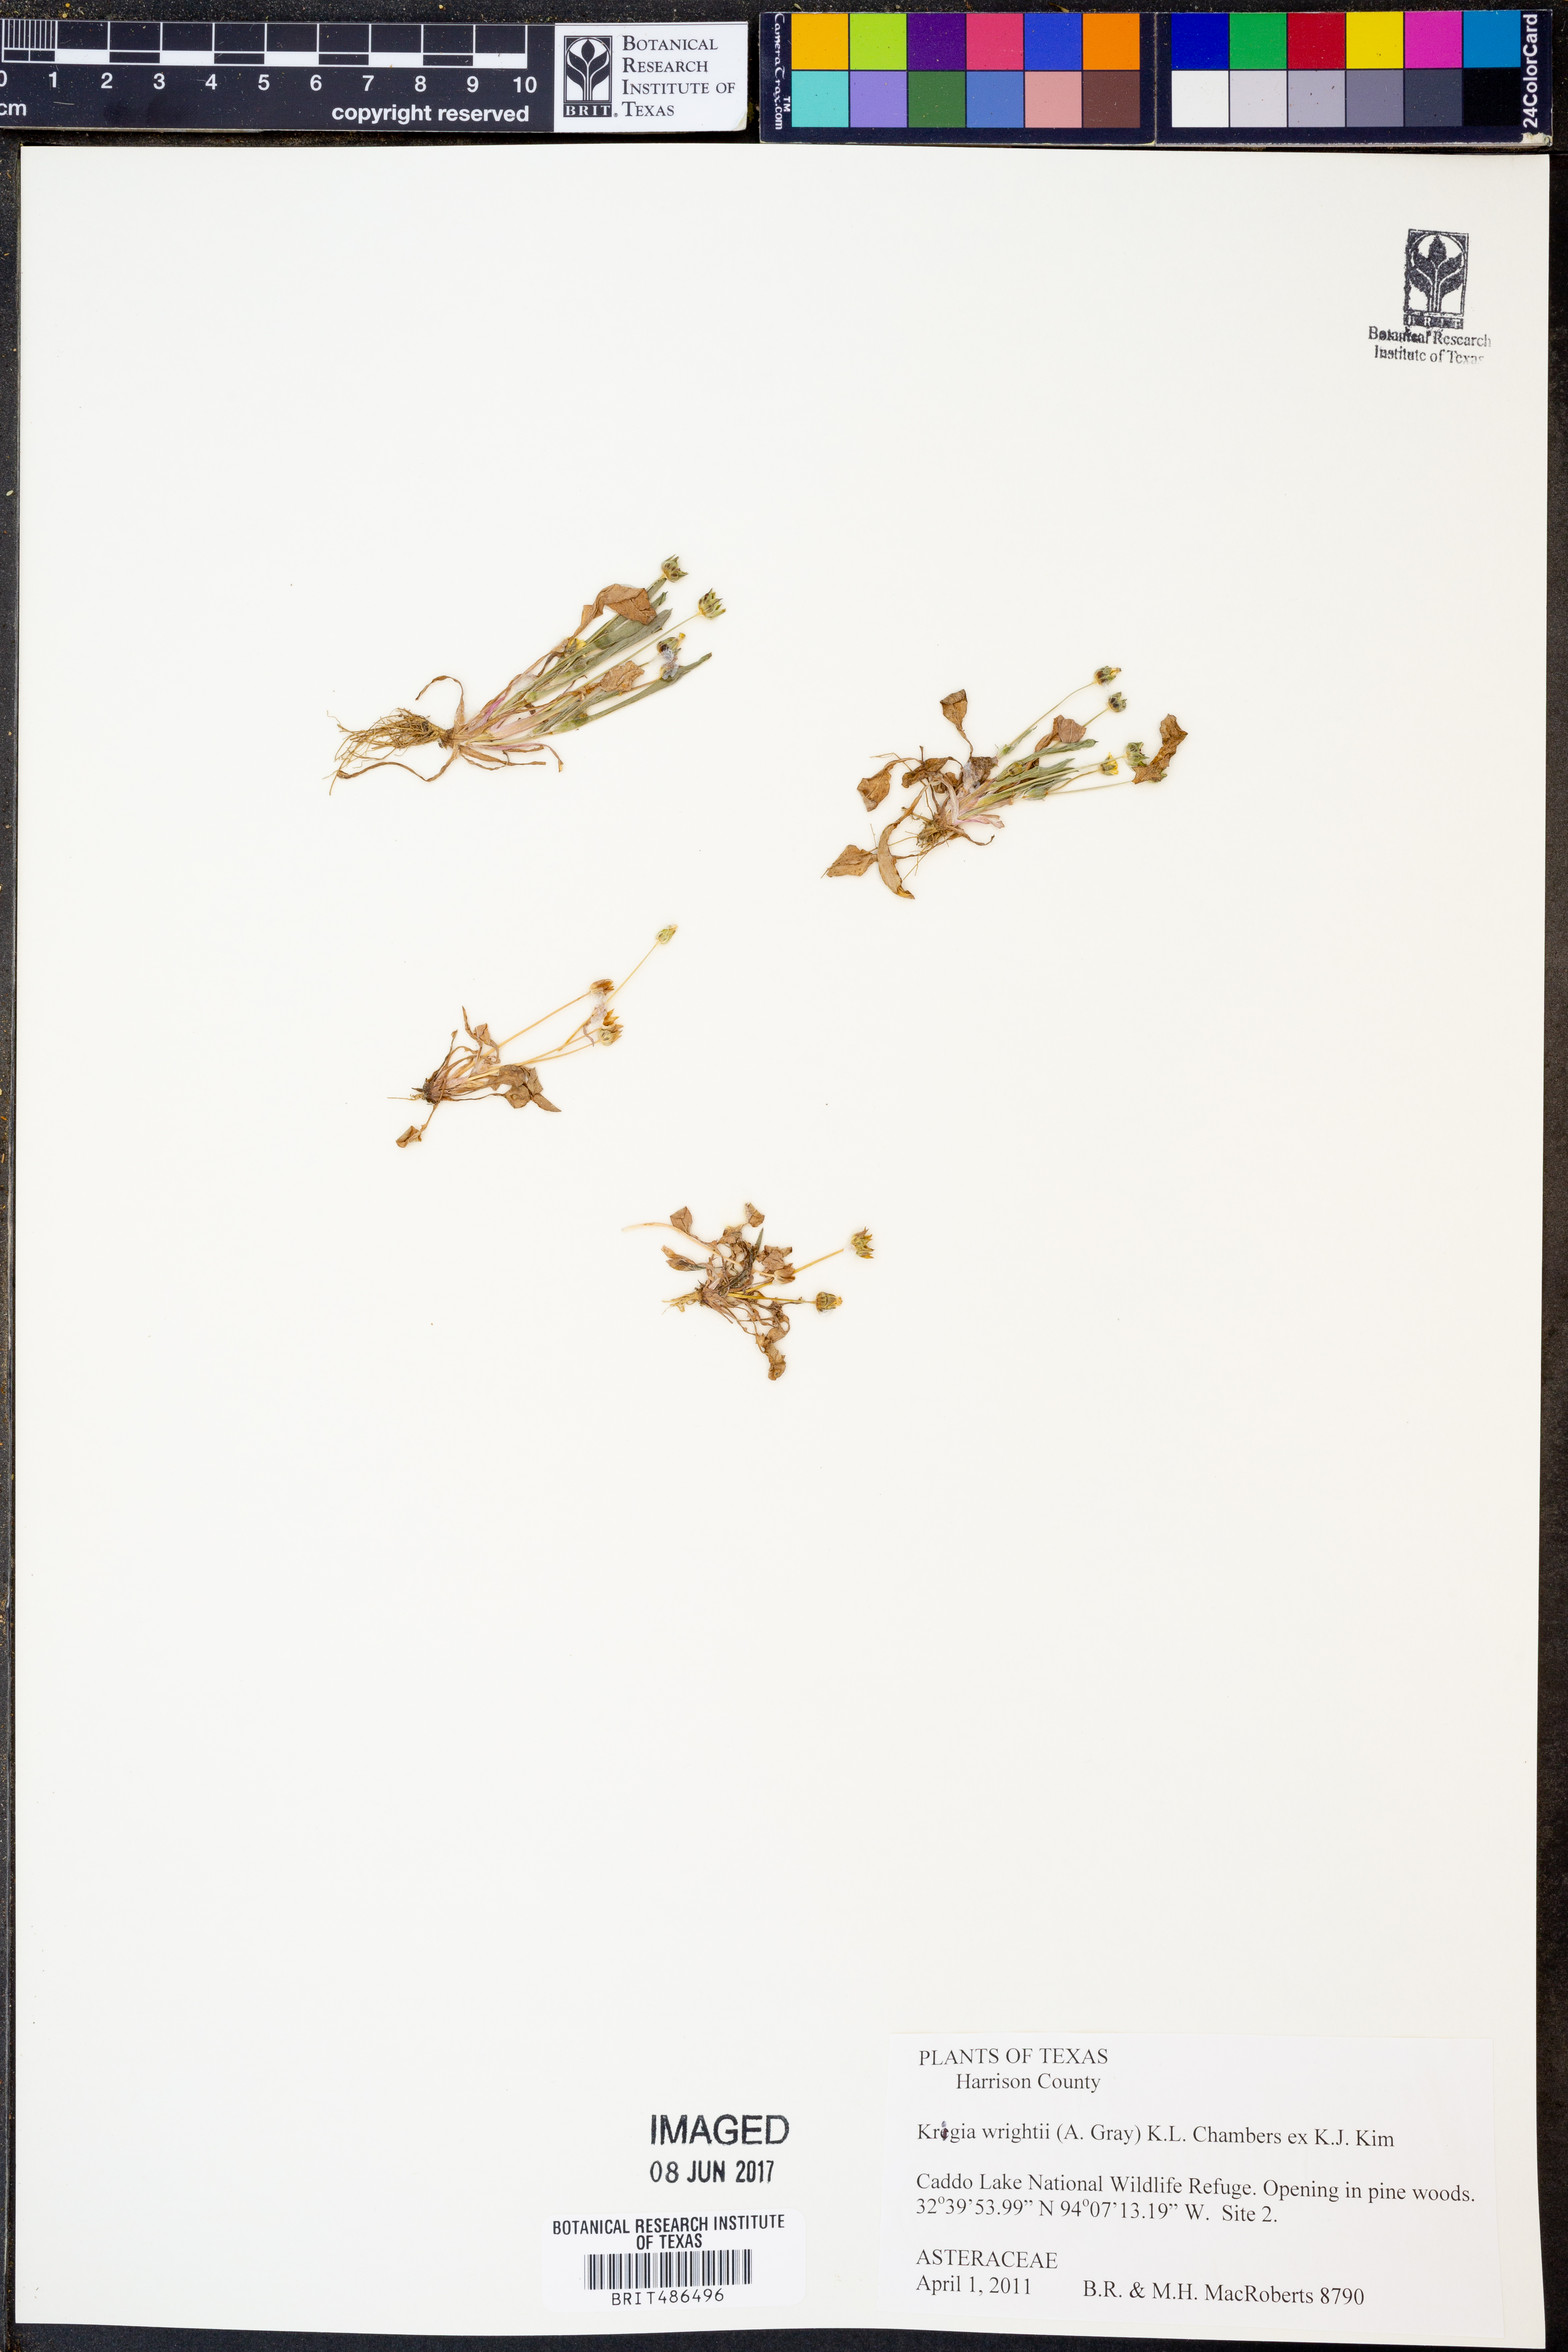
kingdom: Plantae
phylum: Tracheophyta
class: Magnoliopsida
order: Asterales
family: Asteraceae
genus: Krigia
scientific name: Krigia wrightii
